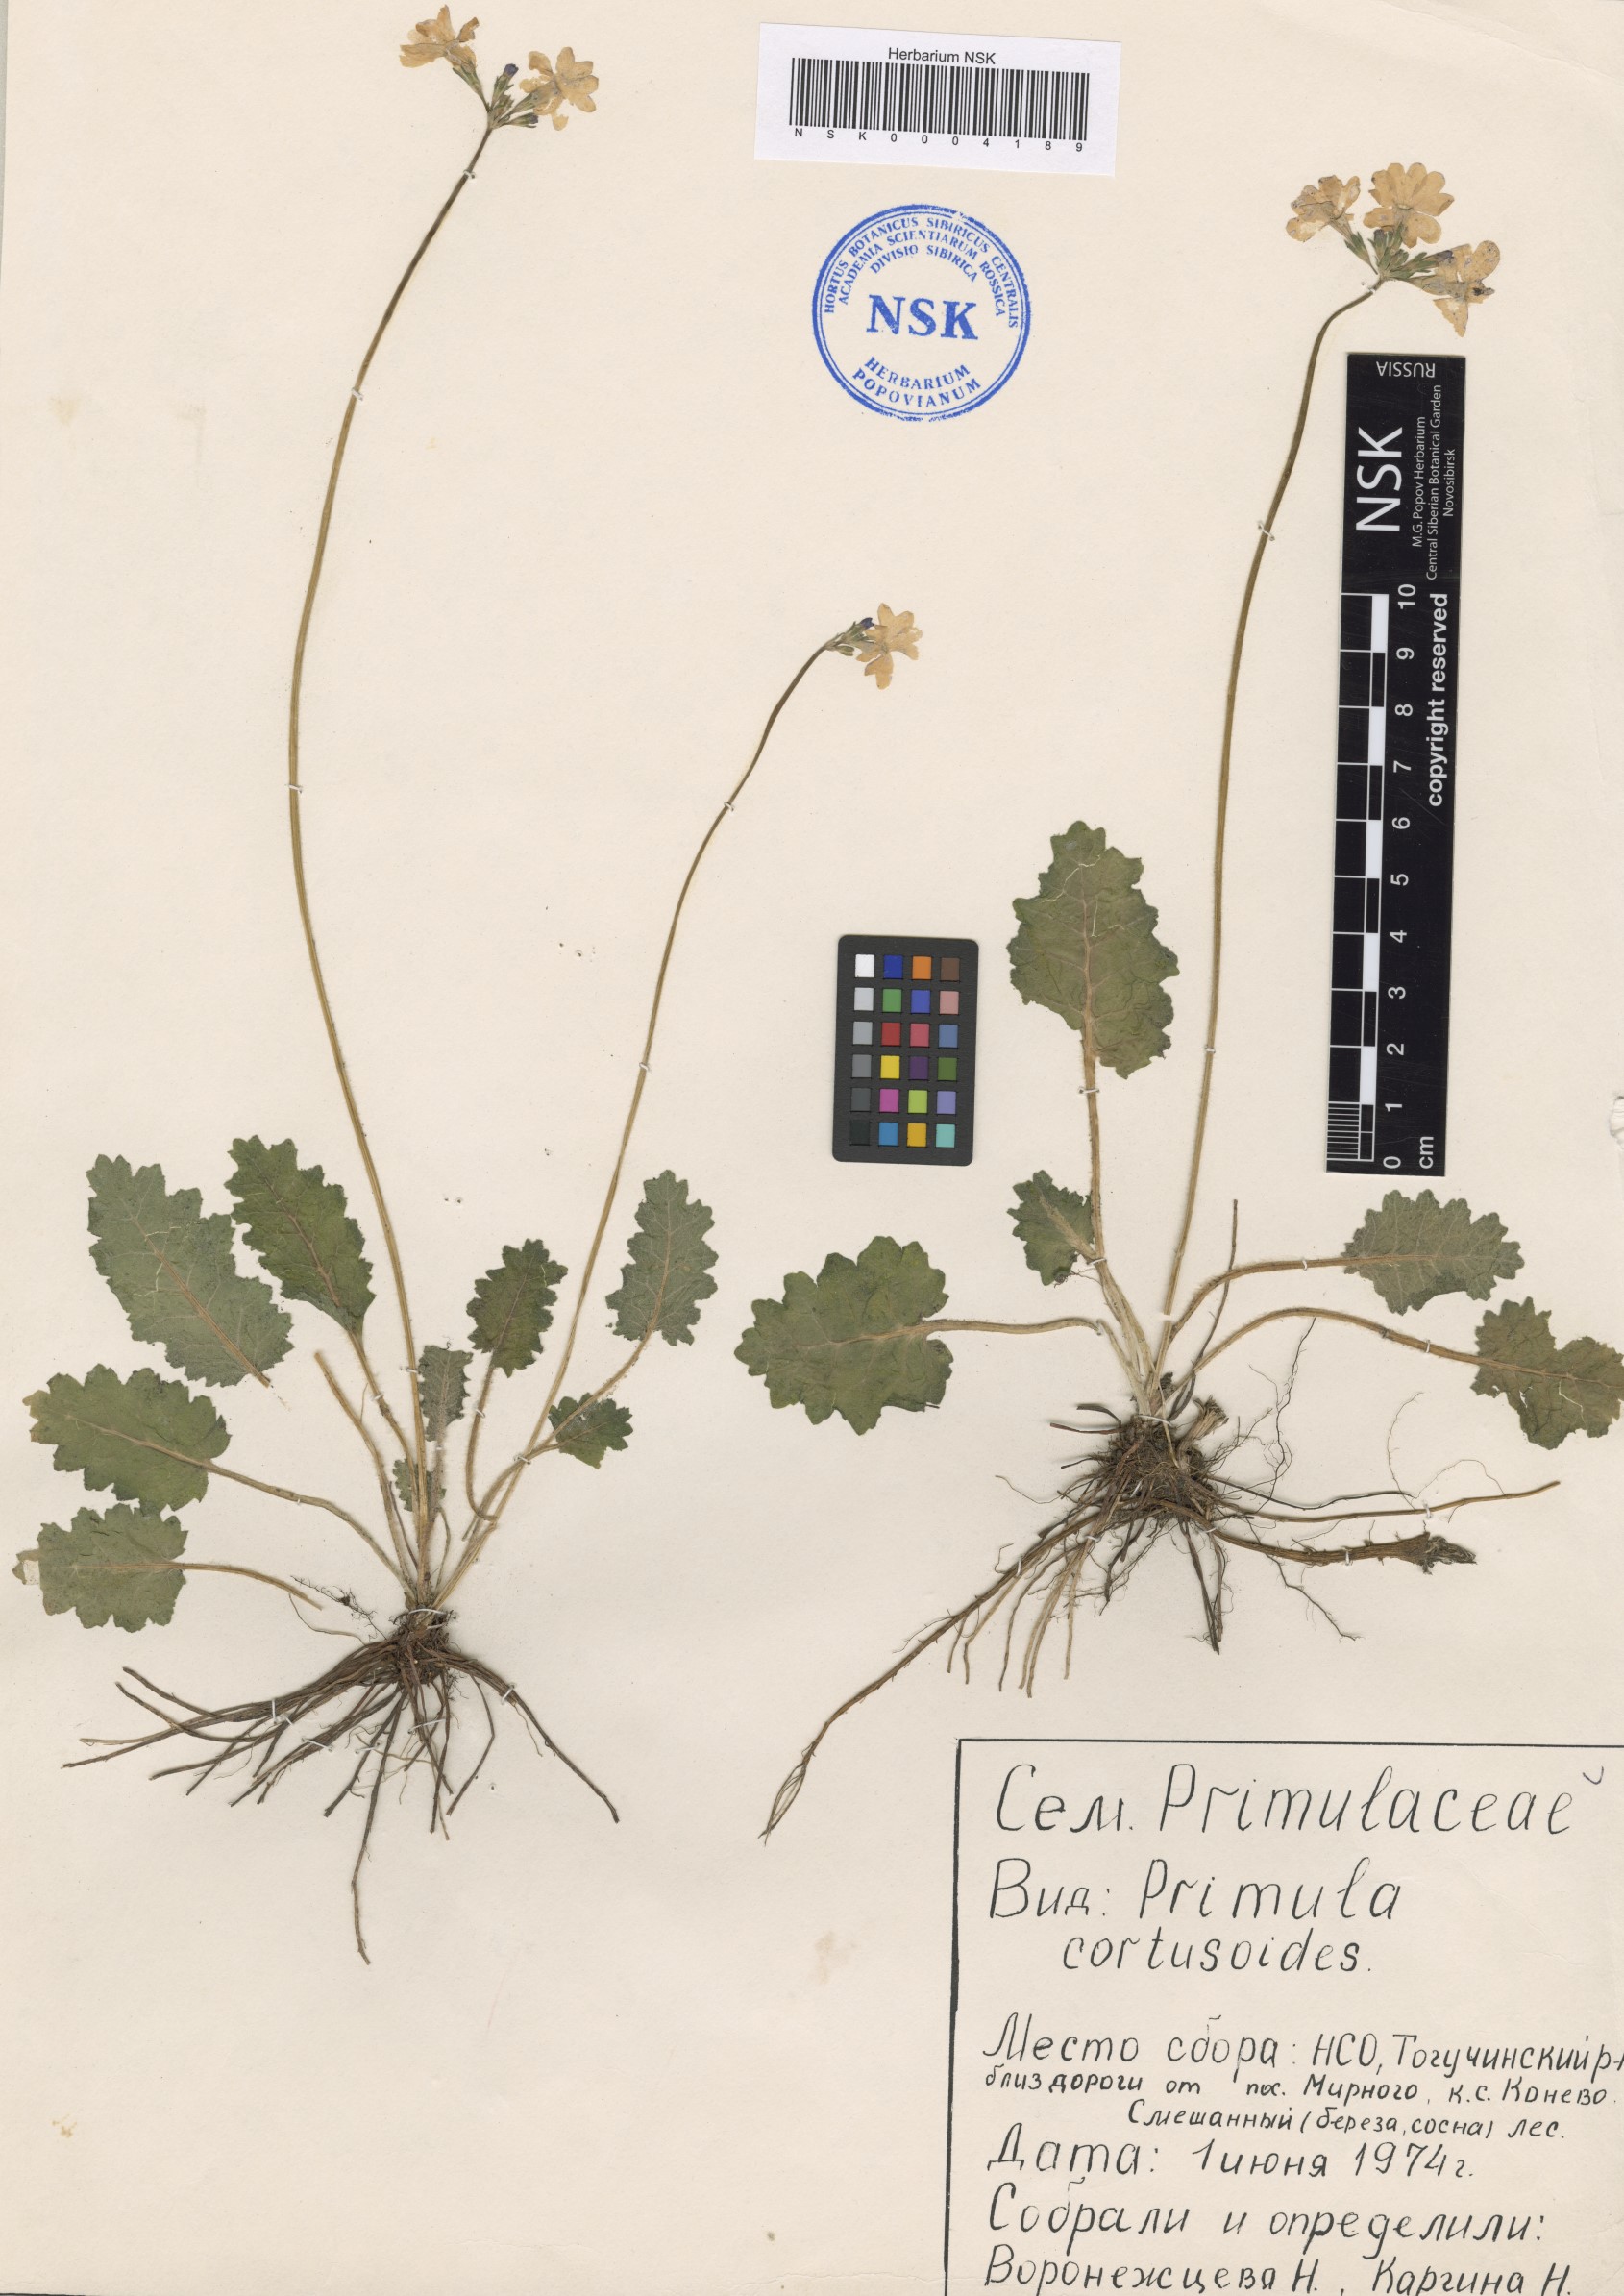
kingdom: Plantae
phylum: Tracheophyta
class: Magnoliopsida
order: Ericales
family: Primulaceae
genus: Primula
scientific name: Primula cortusoides
